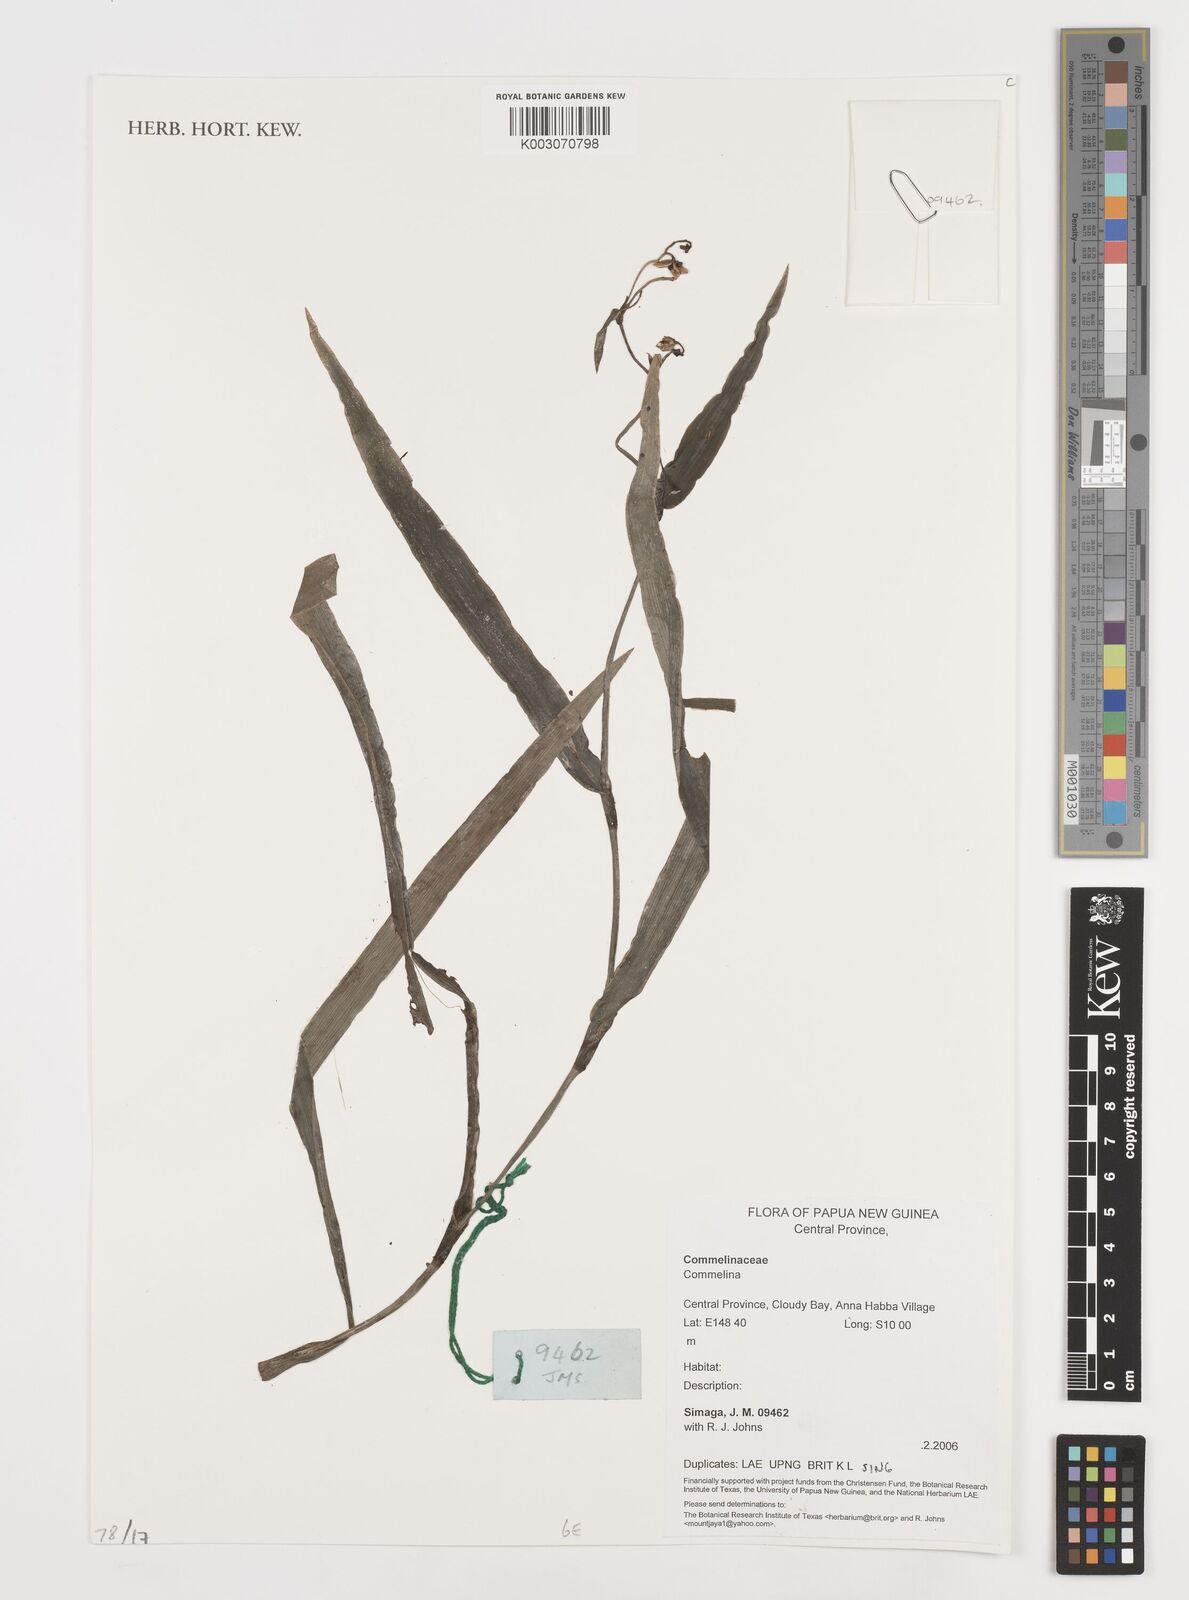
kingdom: Plantae
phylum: Tracheophyta
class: Liliopsida
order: Commelinales
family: Commelinaceae
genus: Commelina
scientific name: Commelina
